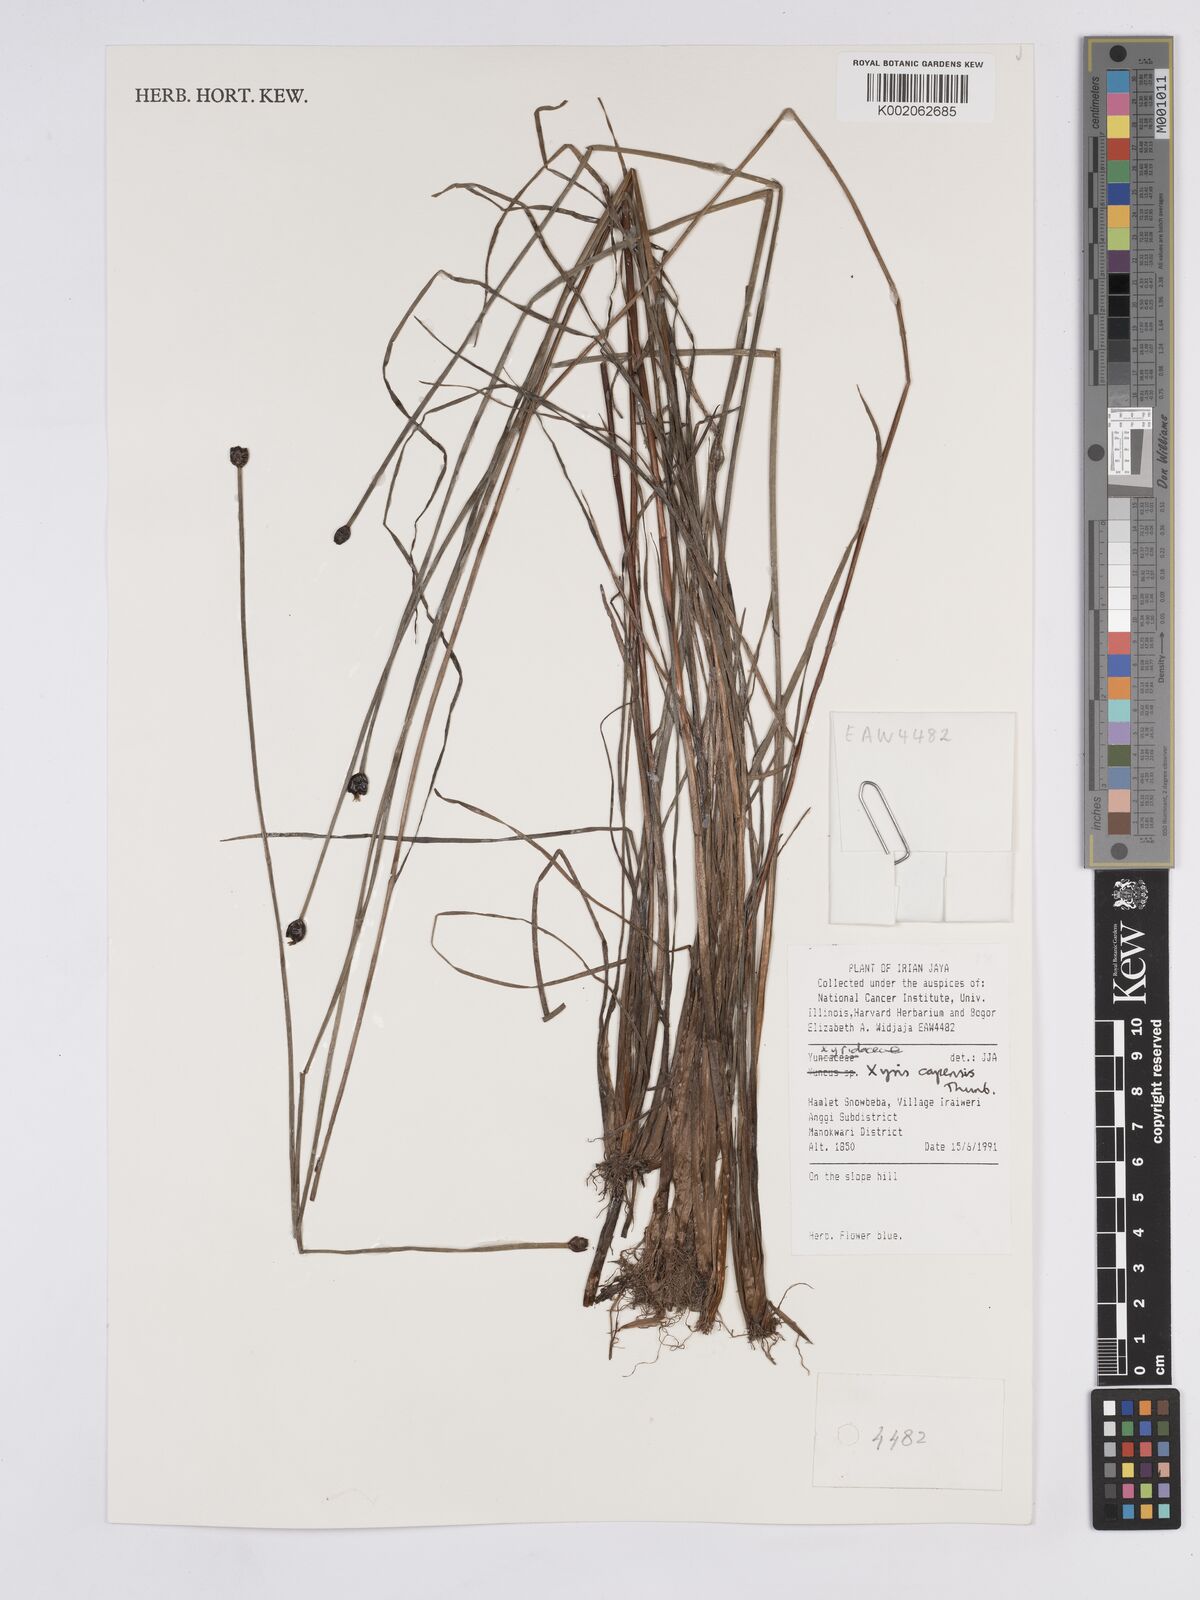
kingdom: Plantae
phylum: Tracheophyta
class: Liliopsida
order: Poales
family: Xyridaceae
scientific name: Xyridaceae
